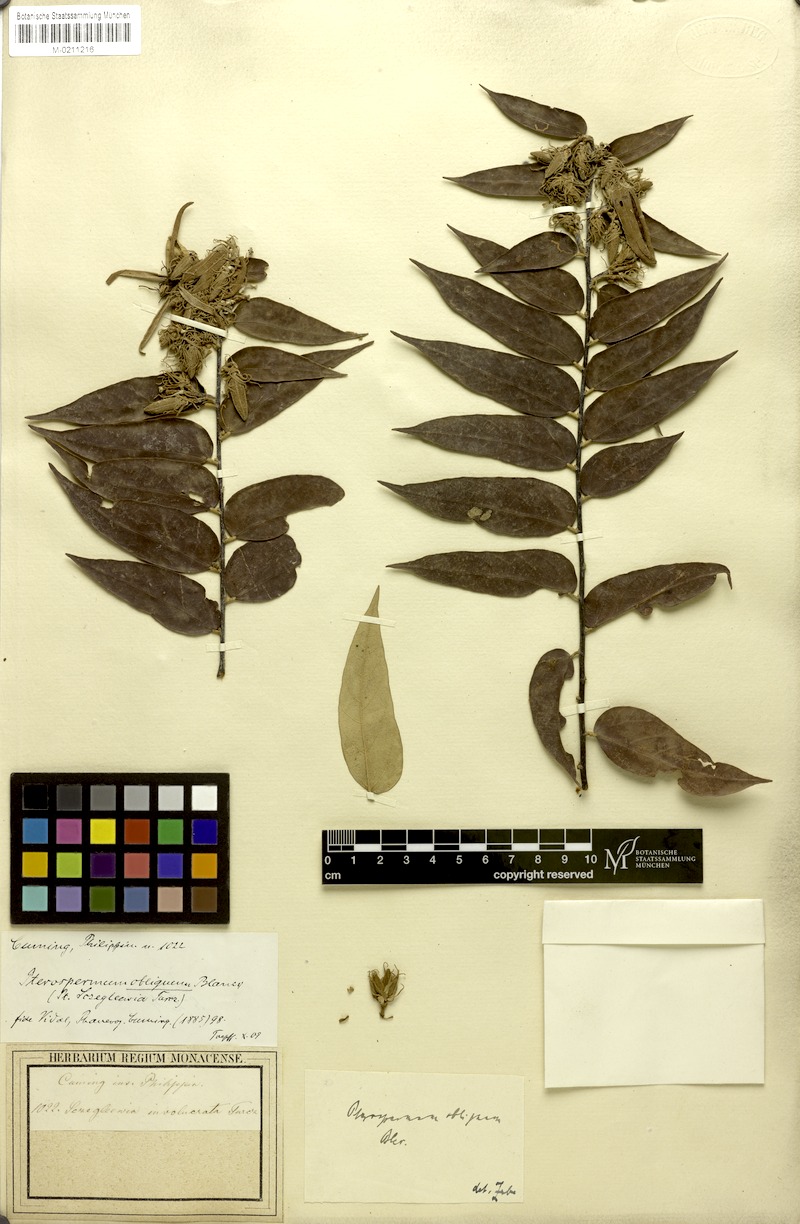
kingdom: Plantae
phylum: Tracheophyta
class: Magnoliopsida
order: Malvales
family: Malvaceae
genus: Pterospermum
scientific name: Pterospermum obliquum
